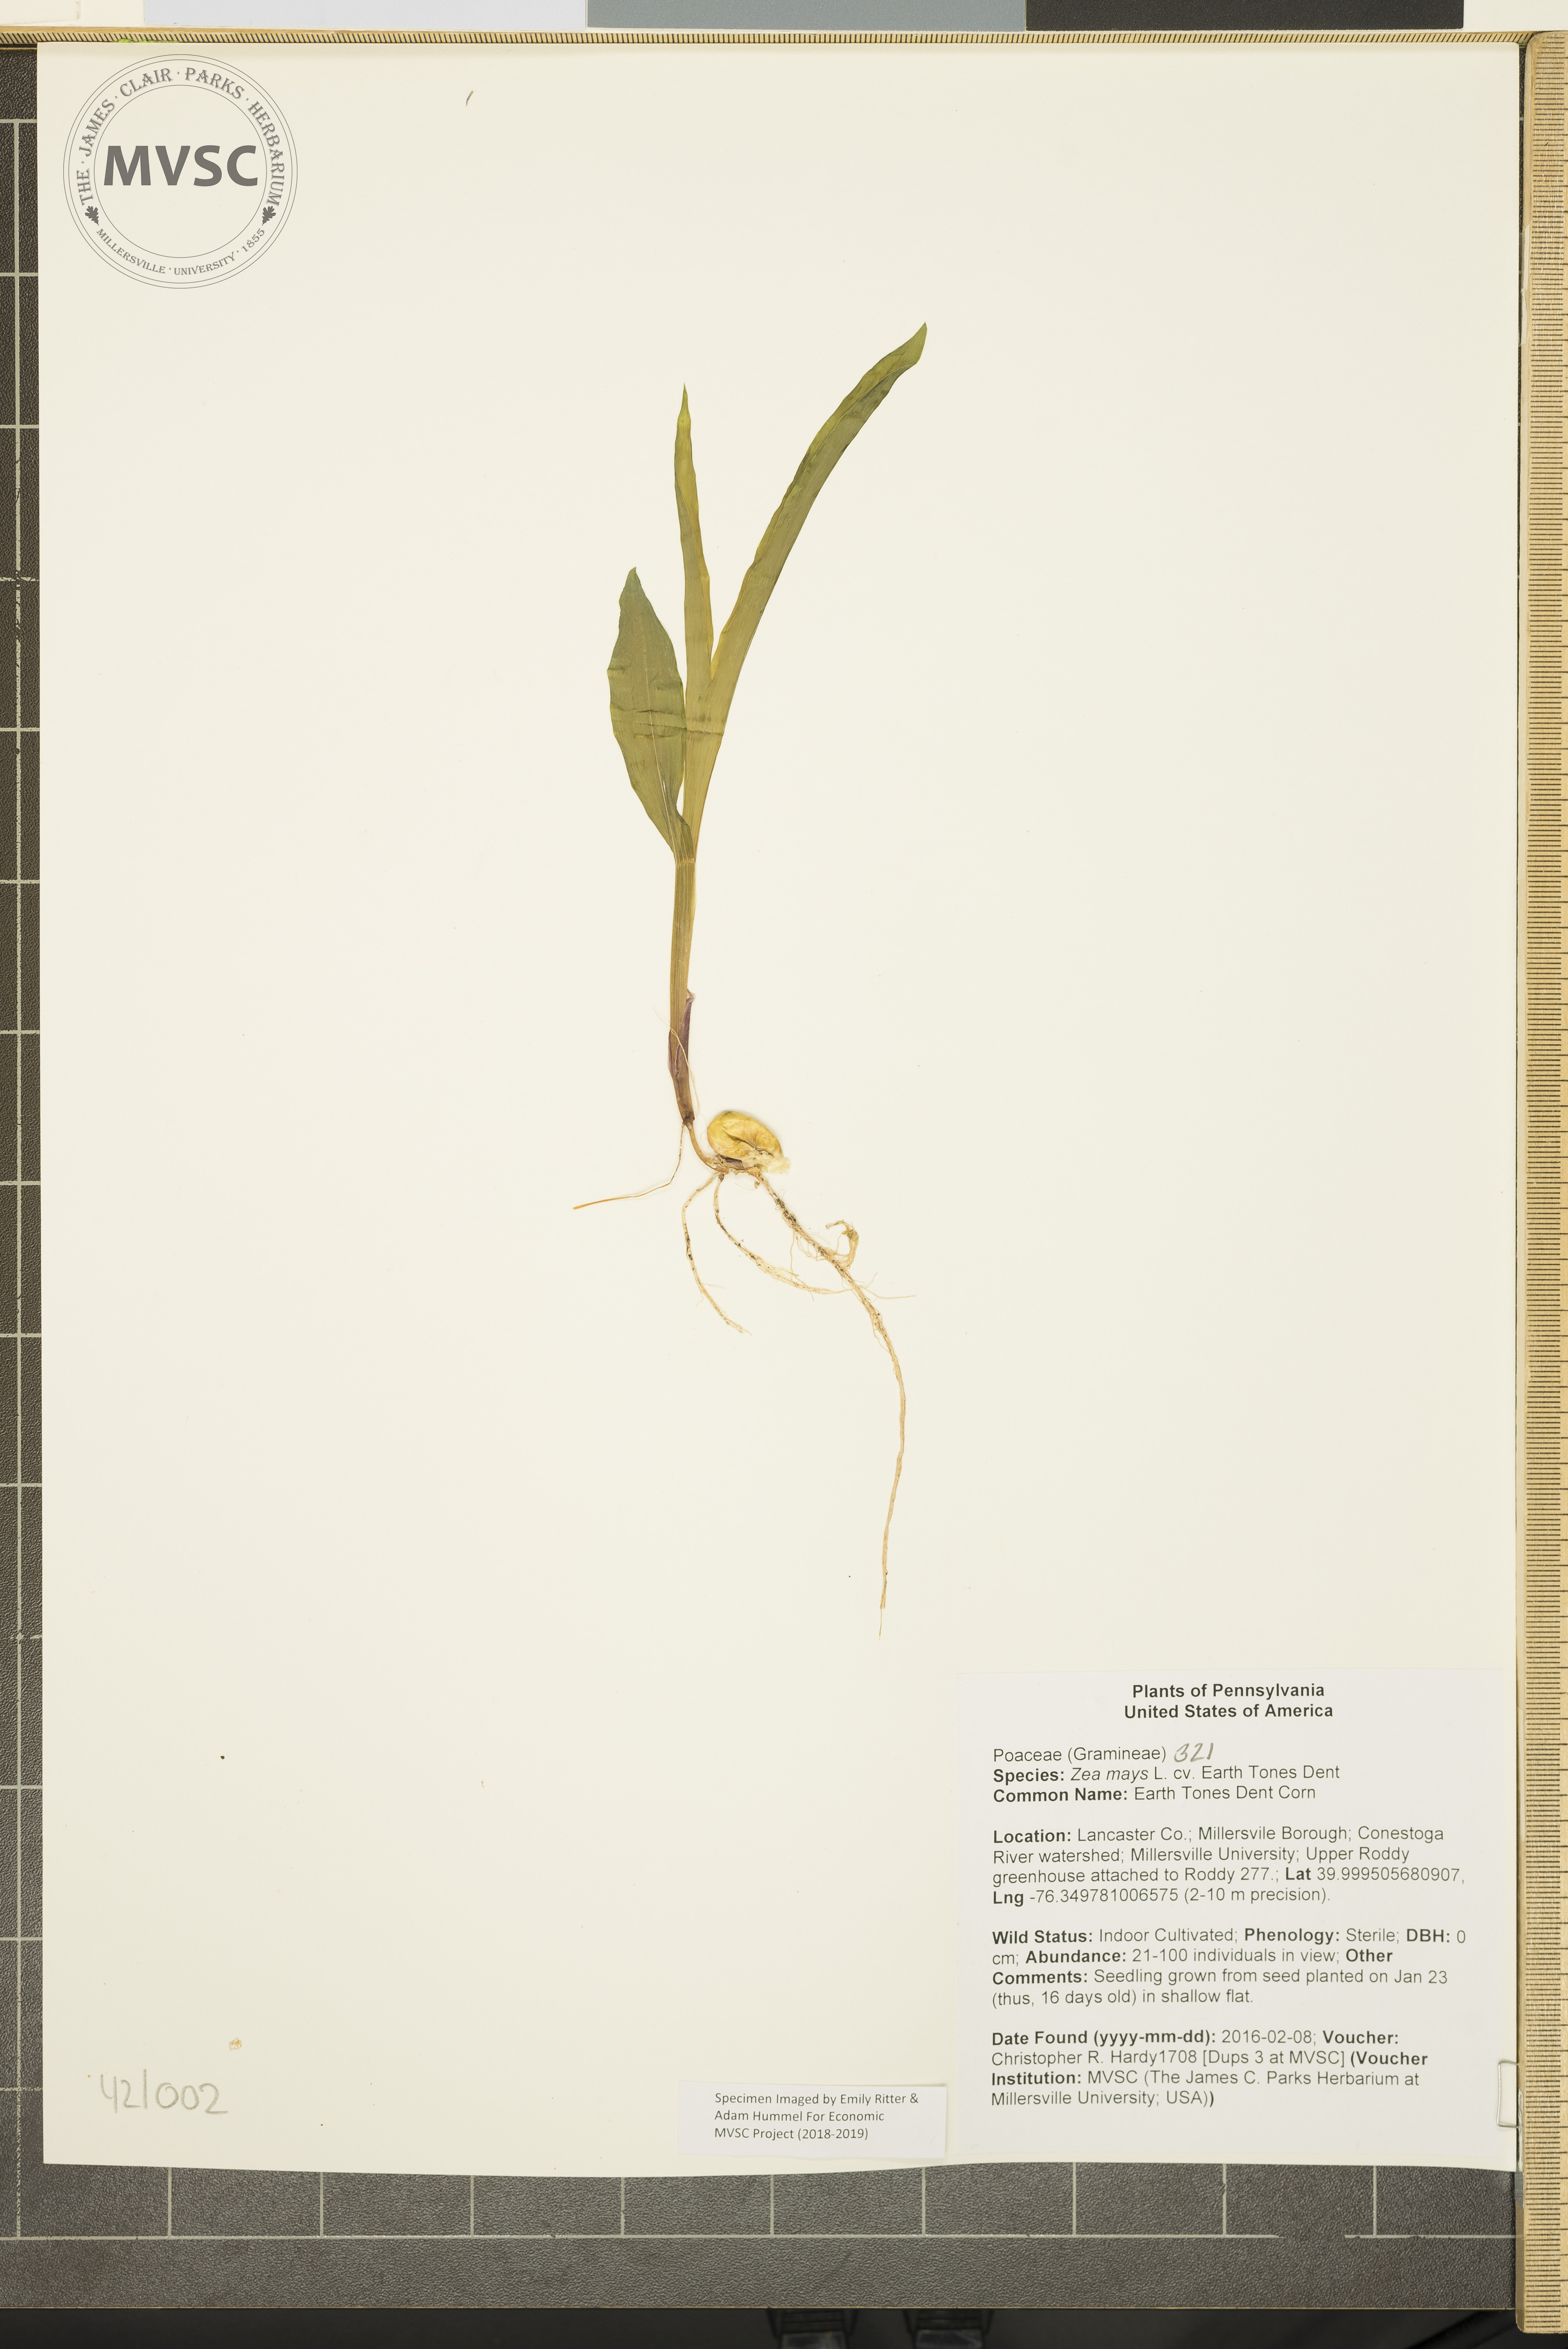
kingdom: Plantae
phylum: Tracheophyta
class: Liliopsida
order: Poales
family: Poaceae
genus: Zea
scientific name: Zea mays
